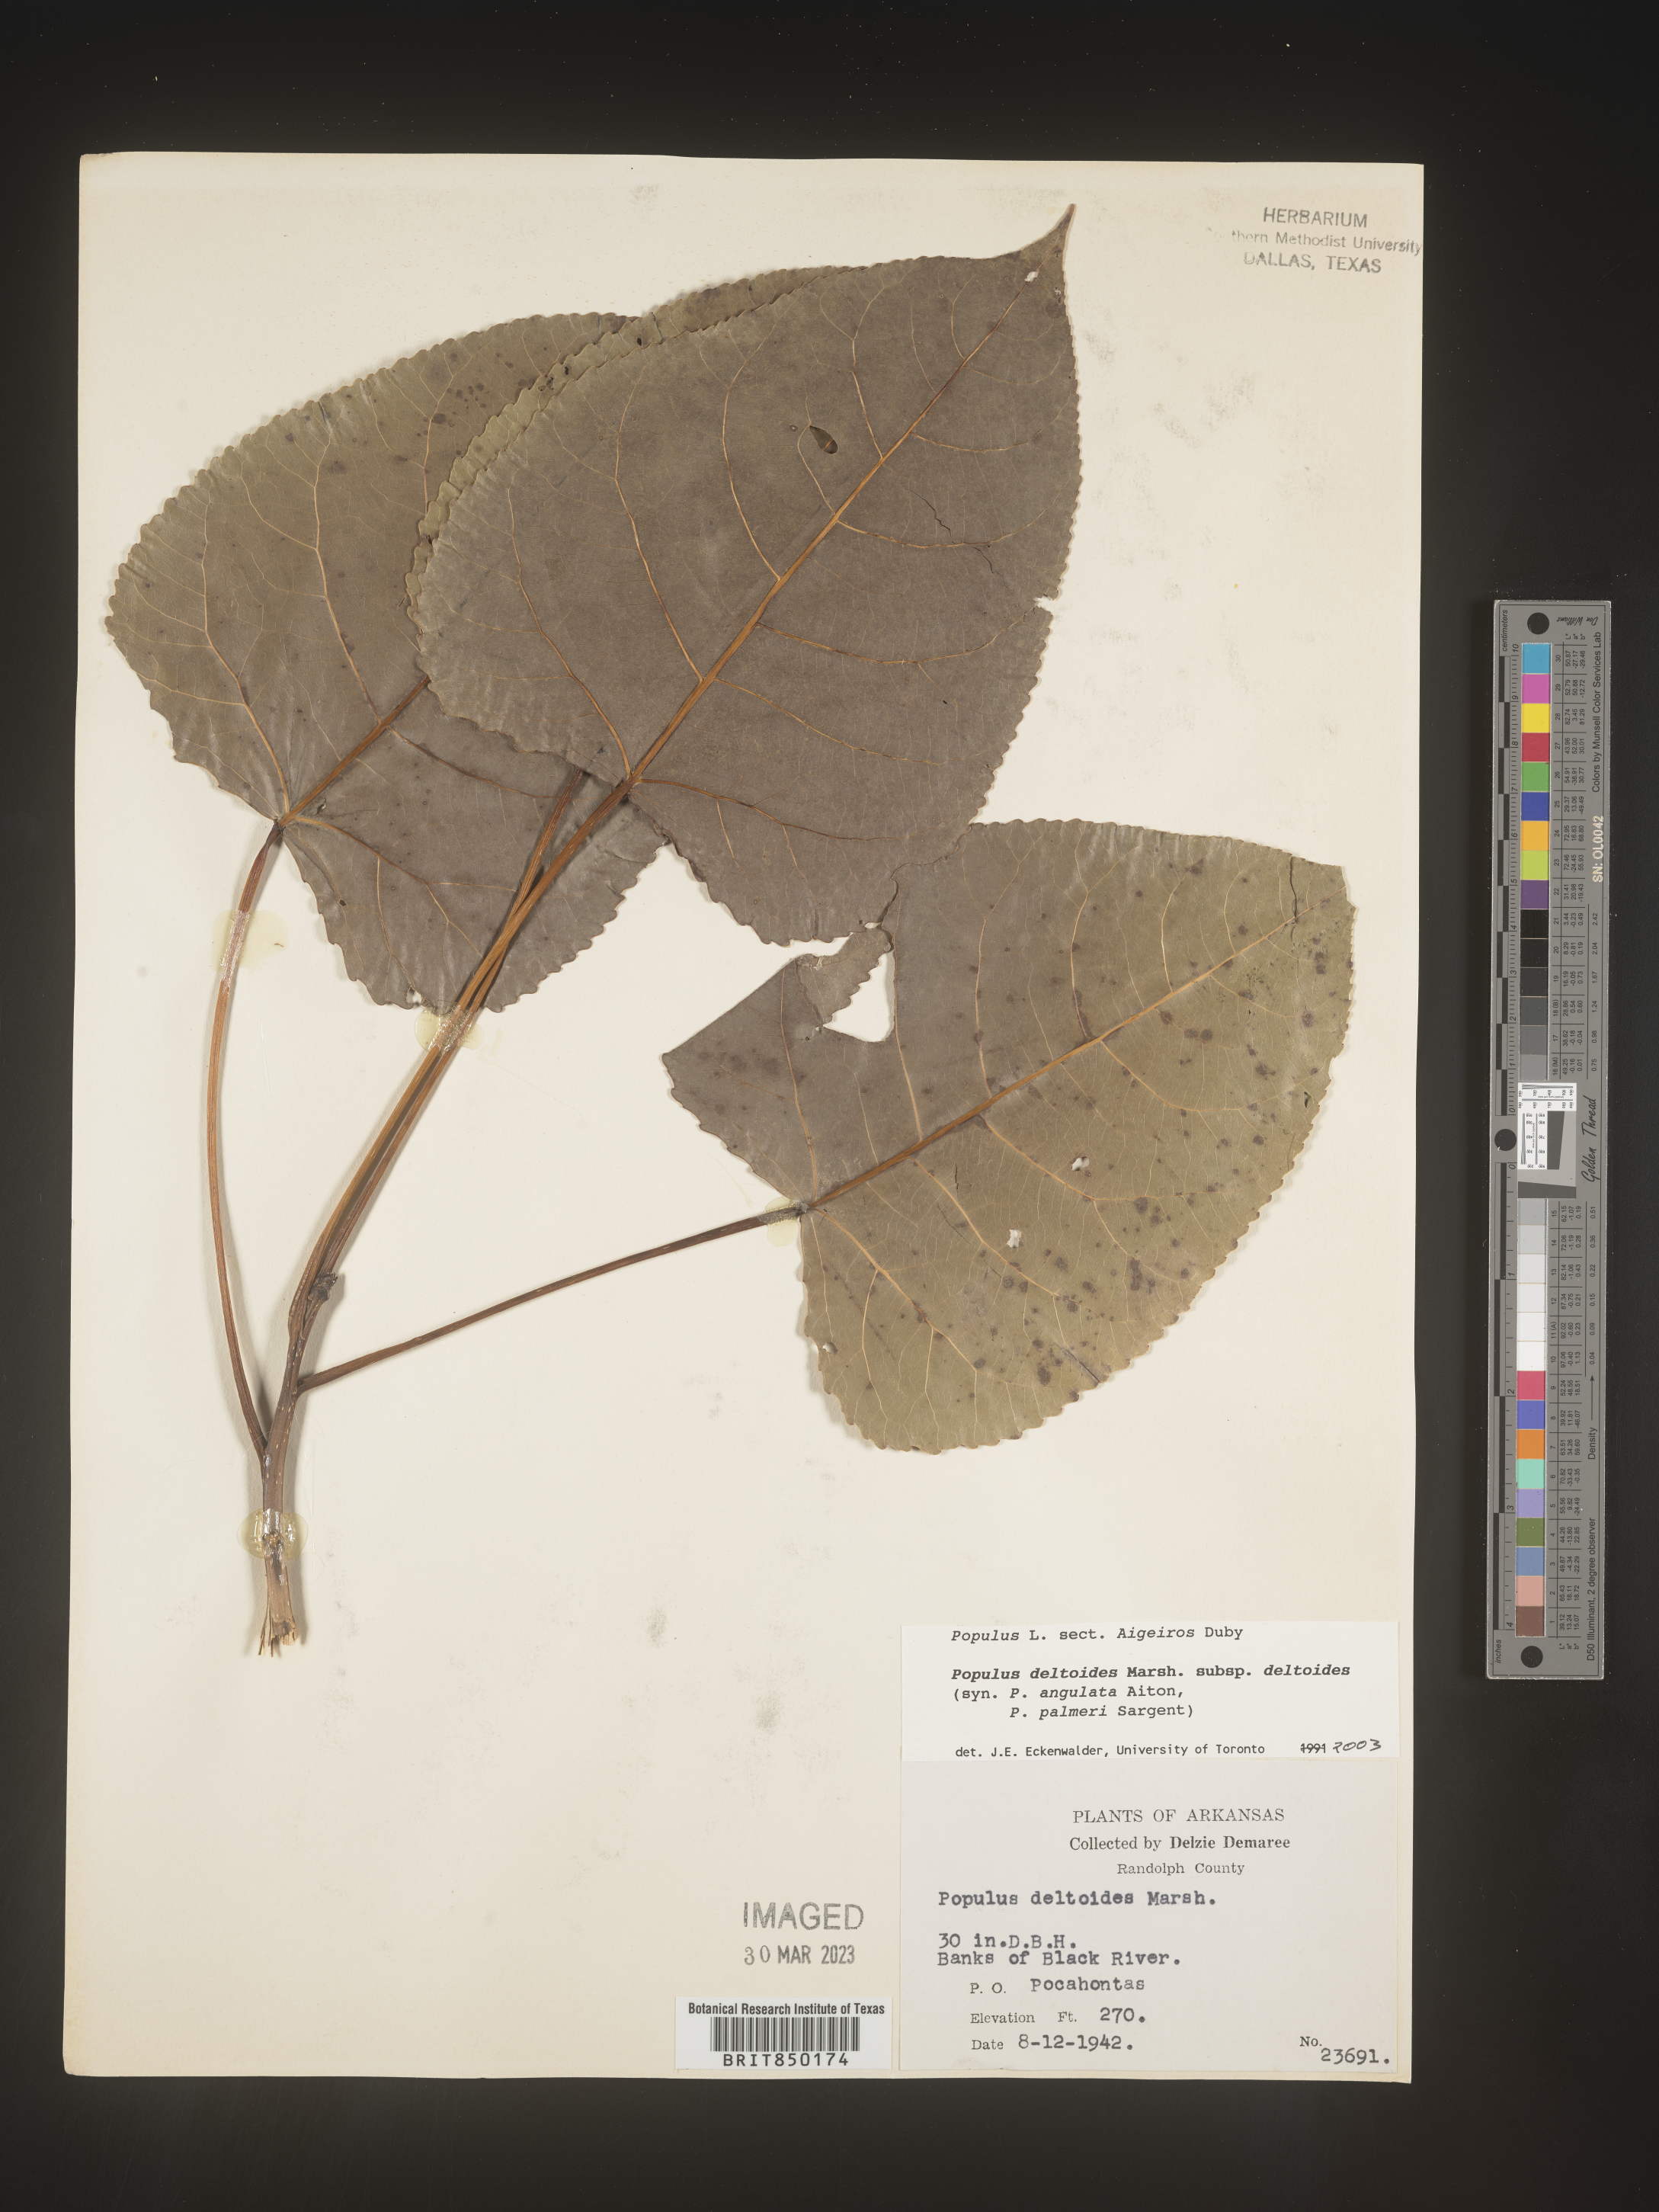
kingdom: Plantae
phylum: Tracheophyta
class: Magnoliopsida
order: Malpighiales
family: Salicaceae
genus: Populus
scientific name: Populus deltoides
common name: Eastern cottonwood
